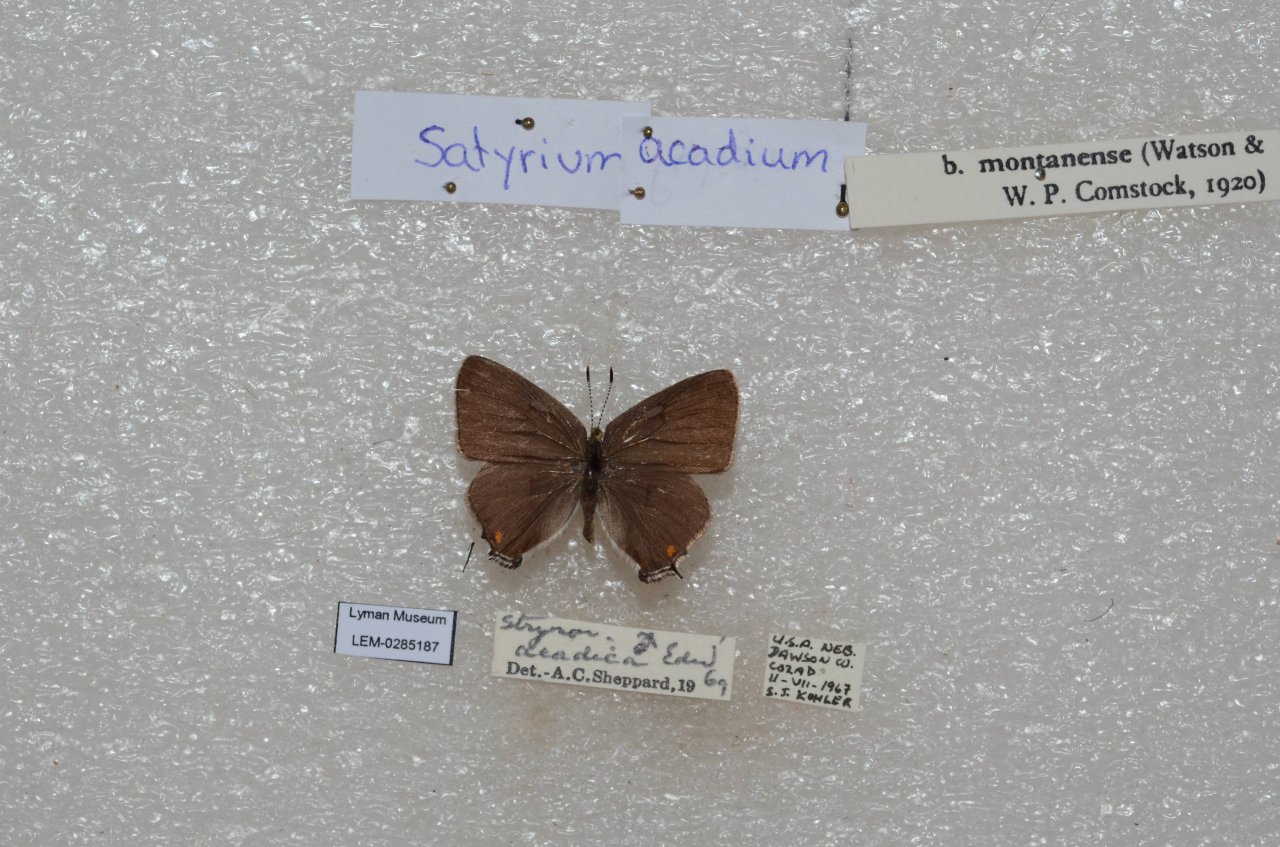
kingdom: Animalia
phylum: Arthropoda
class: Insecta
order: Lepidoptera
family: Lycaenidae
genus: Strymon
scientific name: Strymon acadica
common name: Acadian Hairstreak
